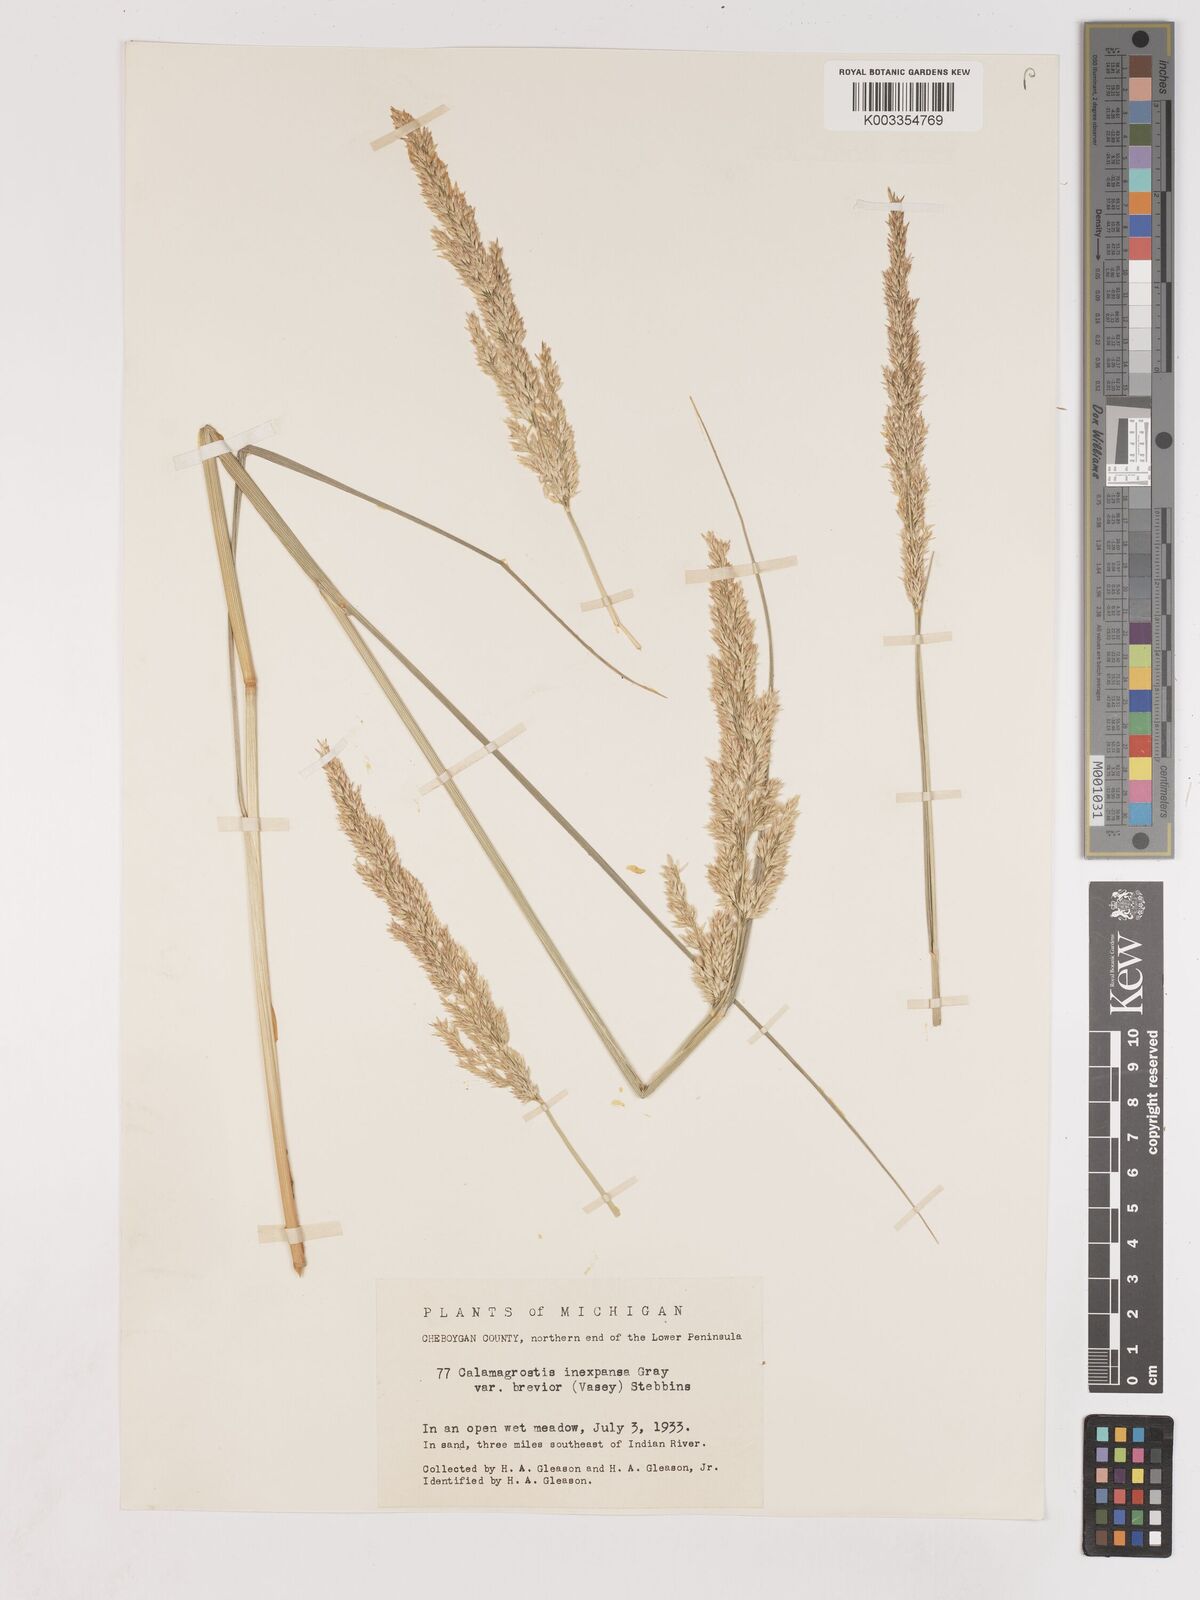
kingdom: Plantae
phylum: Tracheophyta
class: Liliopsida
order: Poales
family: Poaceae
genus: Cinnagrostis
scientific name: Cinnagrostis recta
